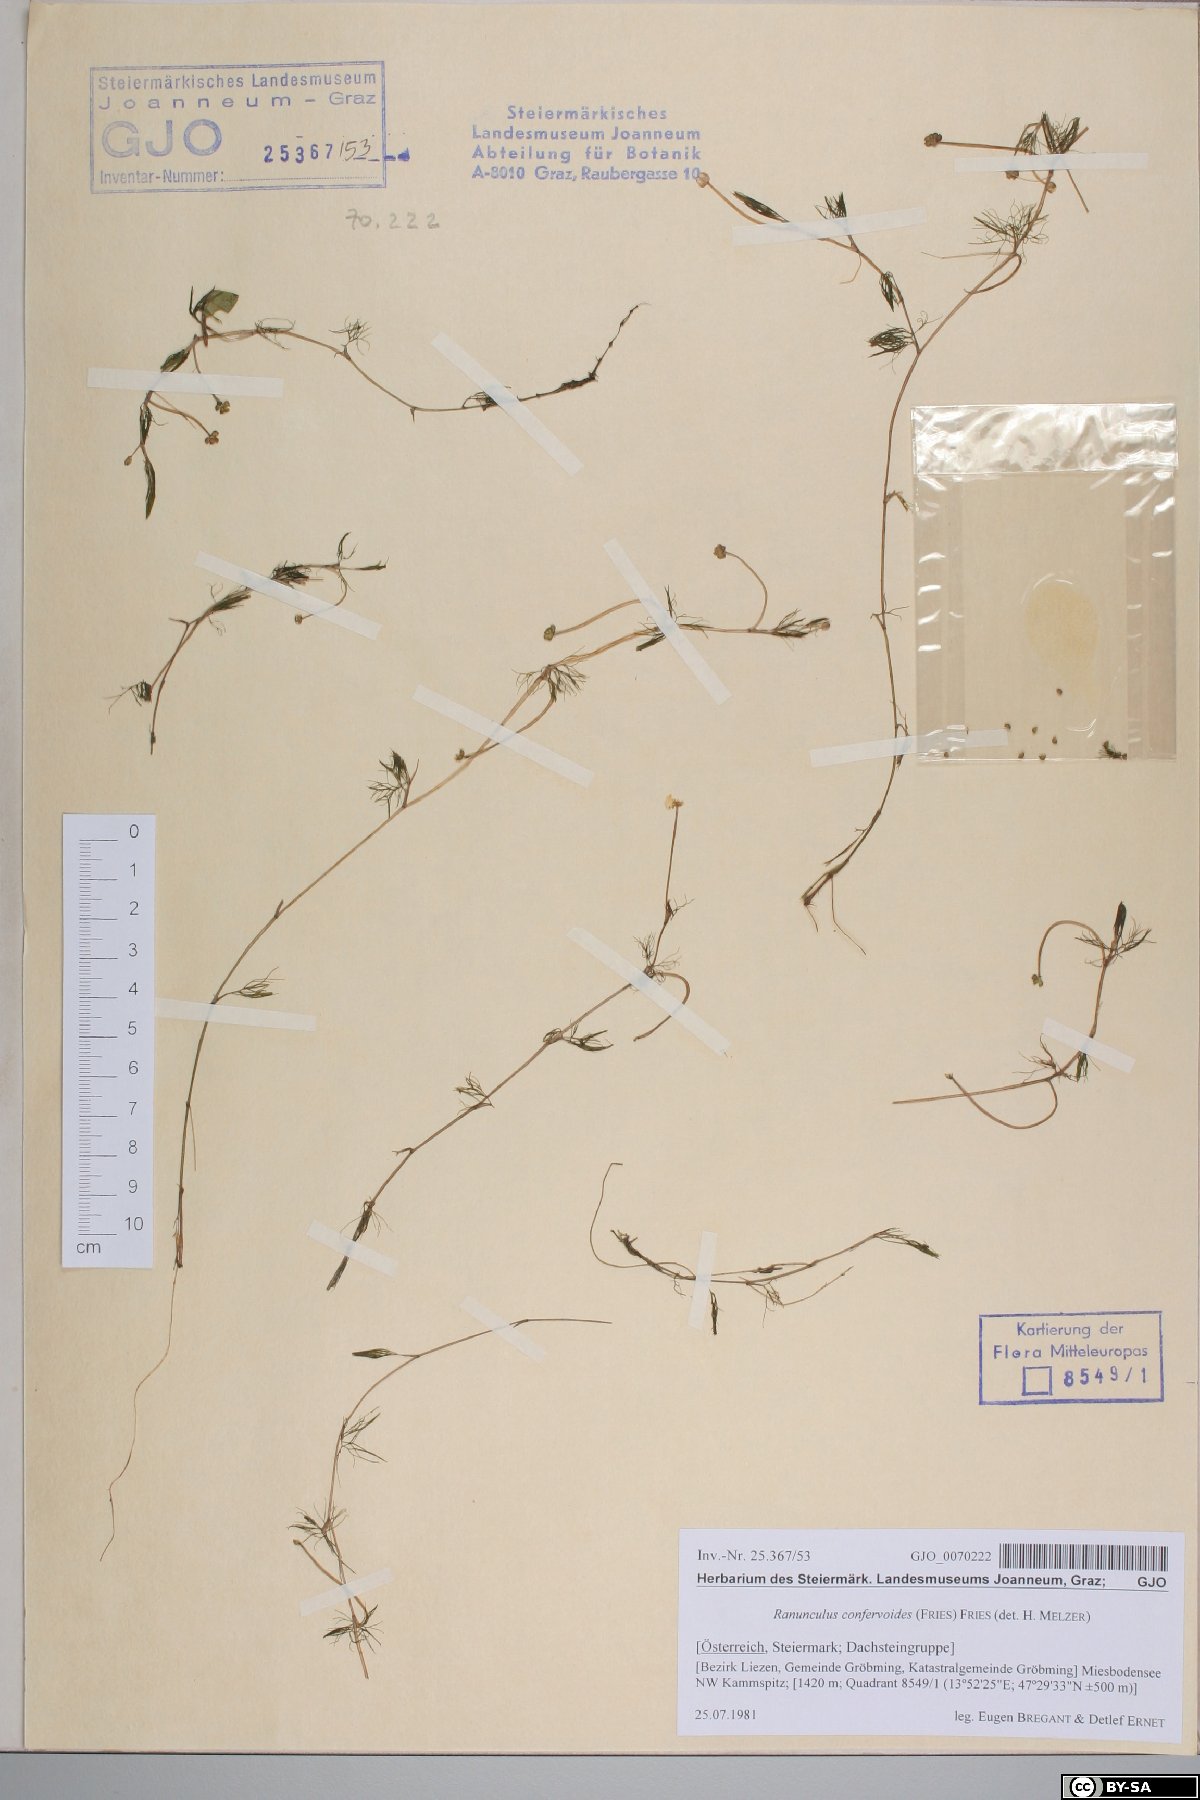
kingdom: Plantae
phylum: Tracheophyta
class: Magnoliopsida
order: Ranunculales
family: Ranunculaceae
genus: Ranunculus
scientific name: Ranunculus confervoides
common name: Delicate buttercup
